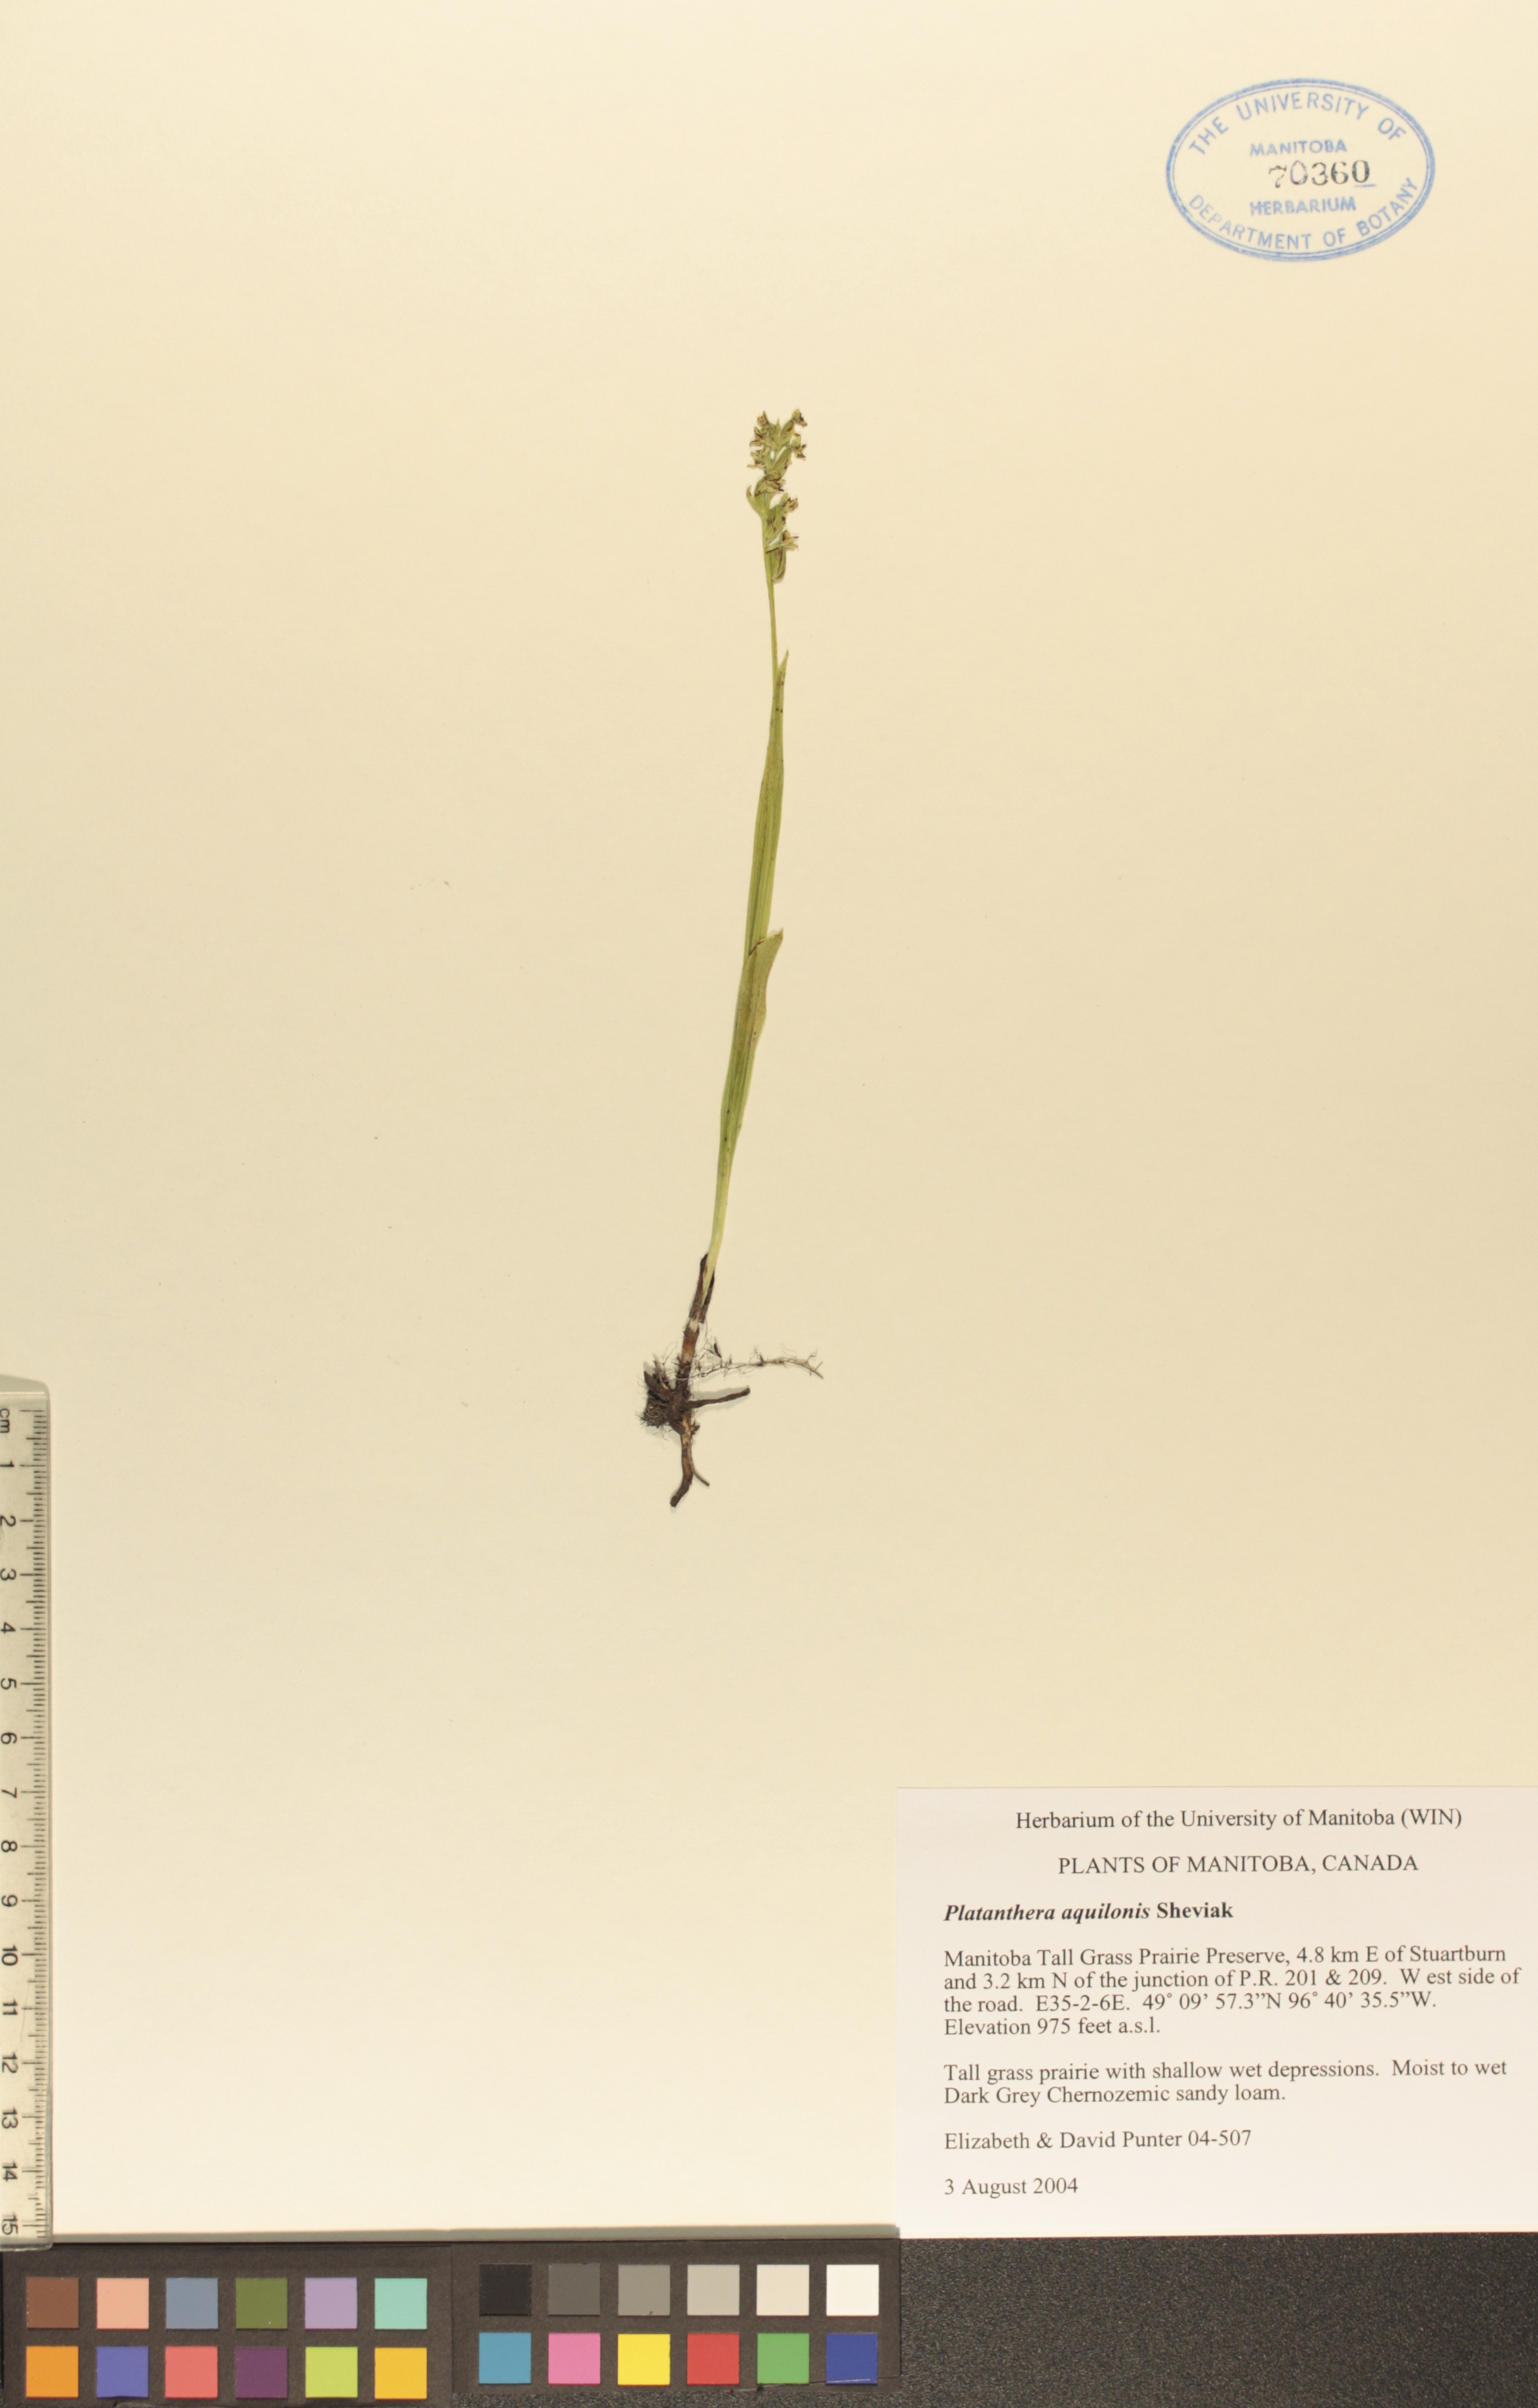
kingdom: Plantae
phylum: Tracheophyta
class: Liliopsida
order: Asparagales
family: Orchidaceae
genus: Platanthera
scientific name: Platanthera aquilonis
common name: Northern green orchid
